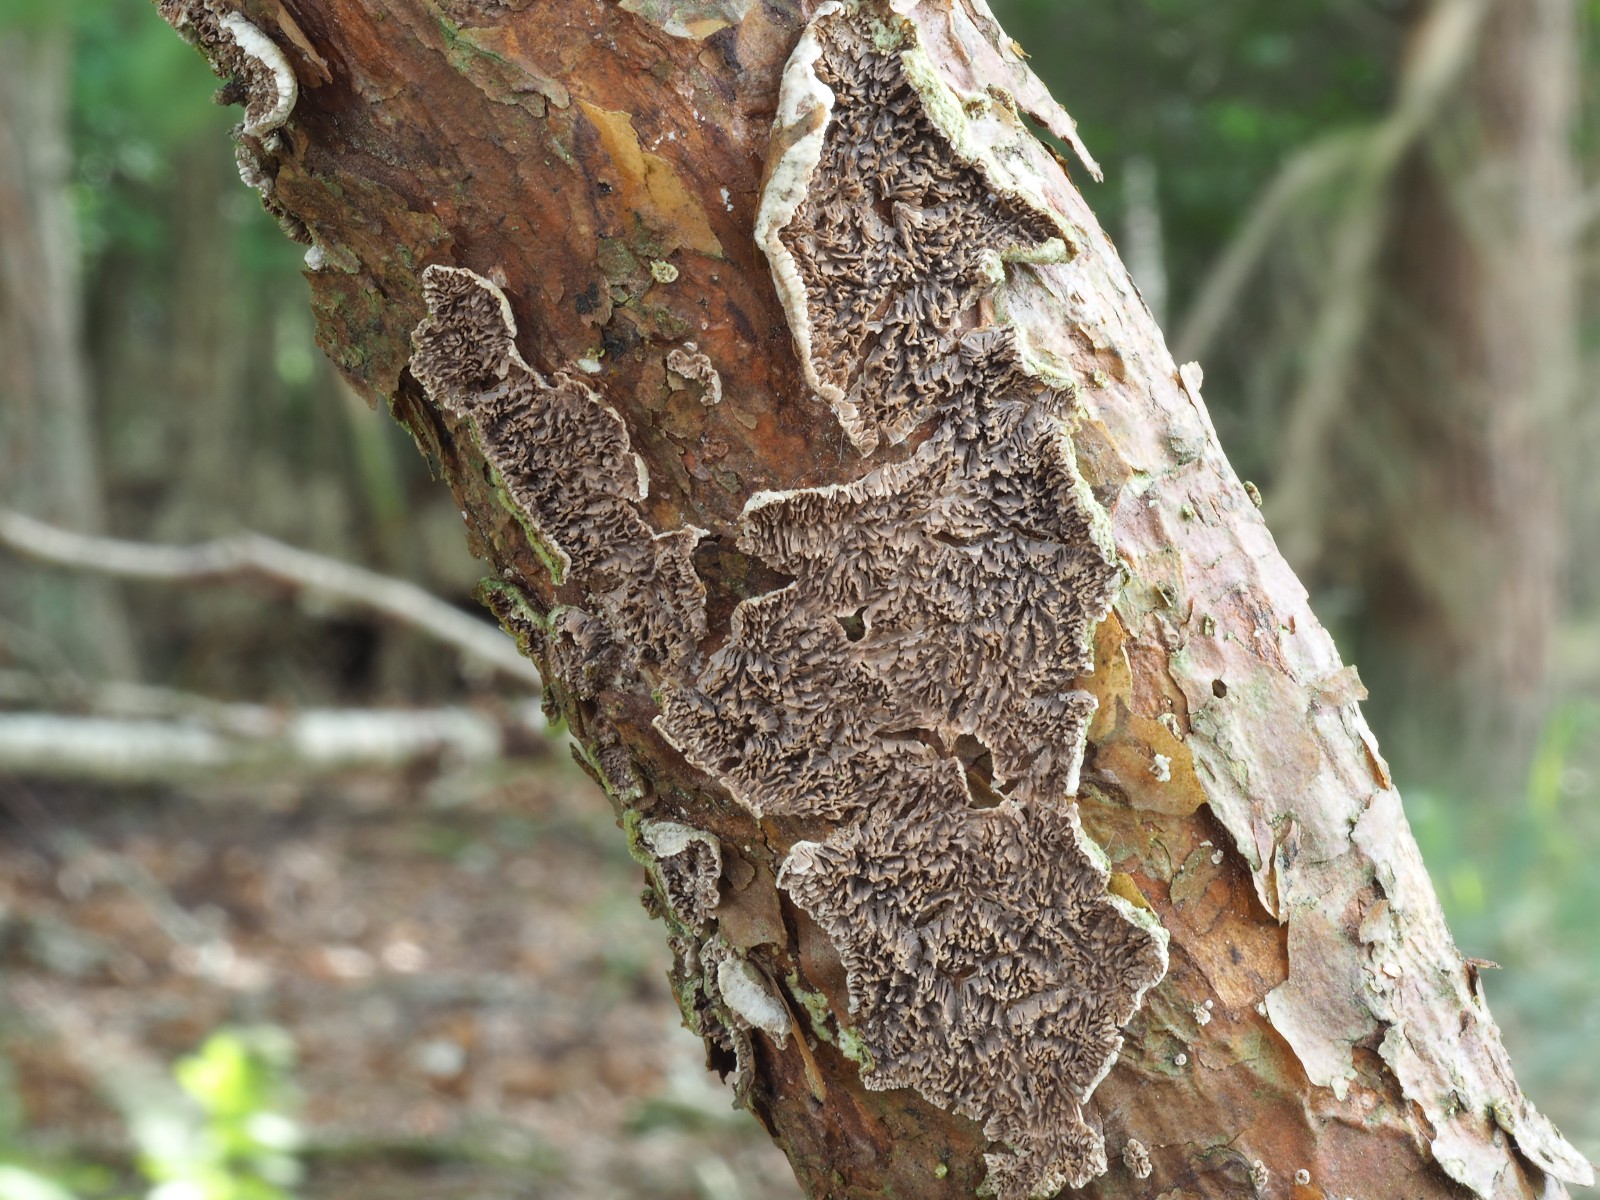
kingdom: Fungi
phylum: Basidiomycota
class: Agaricomycetes
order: Hymenochaetales
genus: Trichaptum
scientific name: Trichaptum fuscoviolaceum
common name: tandet violporesvamp
